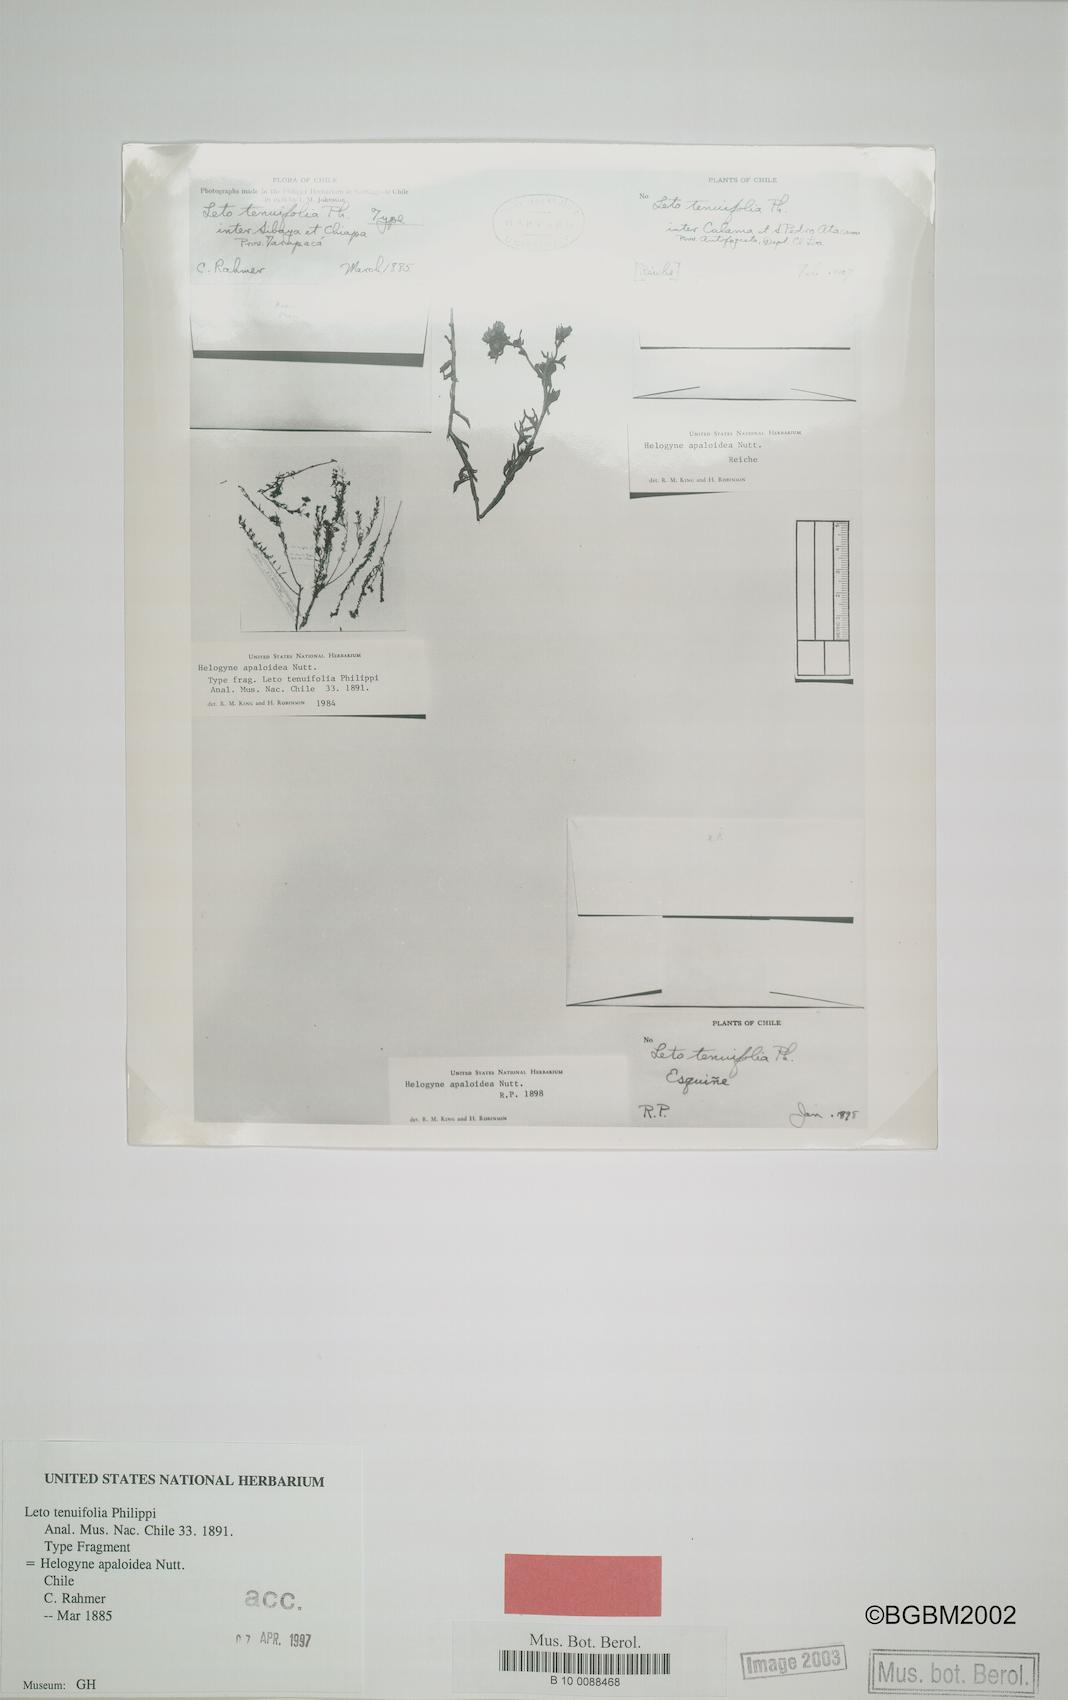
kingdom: Plantae
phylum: Tracheophyta
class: Magnoliopsida
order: Asterales
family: Asteraceae
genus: Helogyne
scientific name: Helogyne apaloidea
